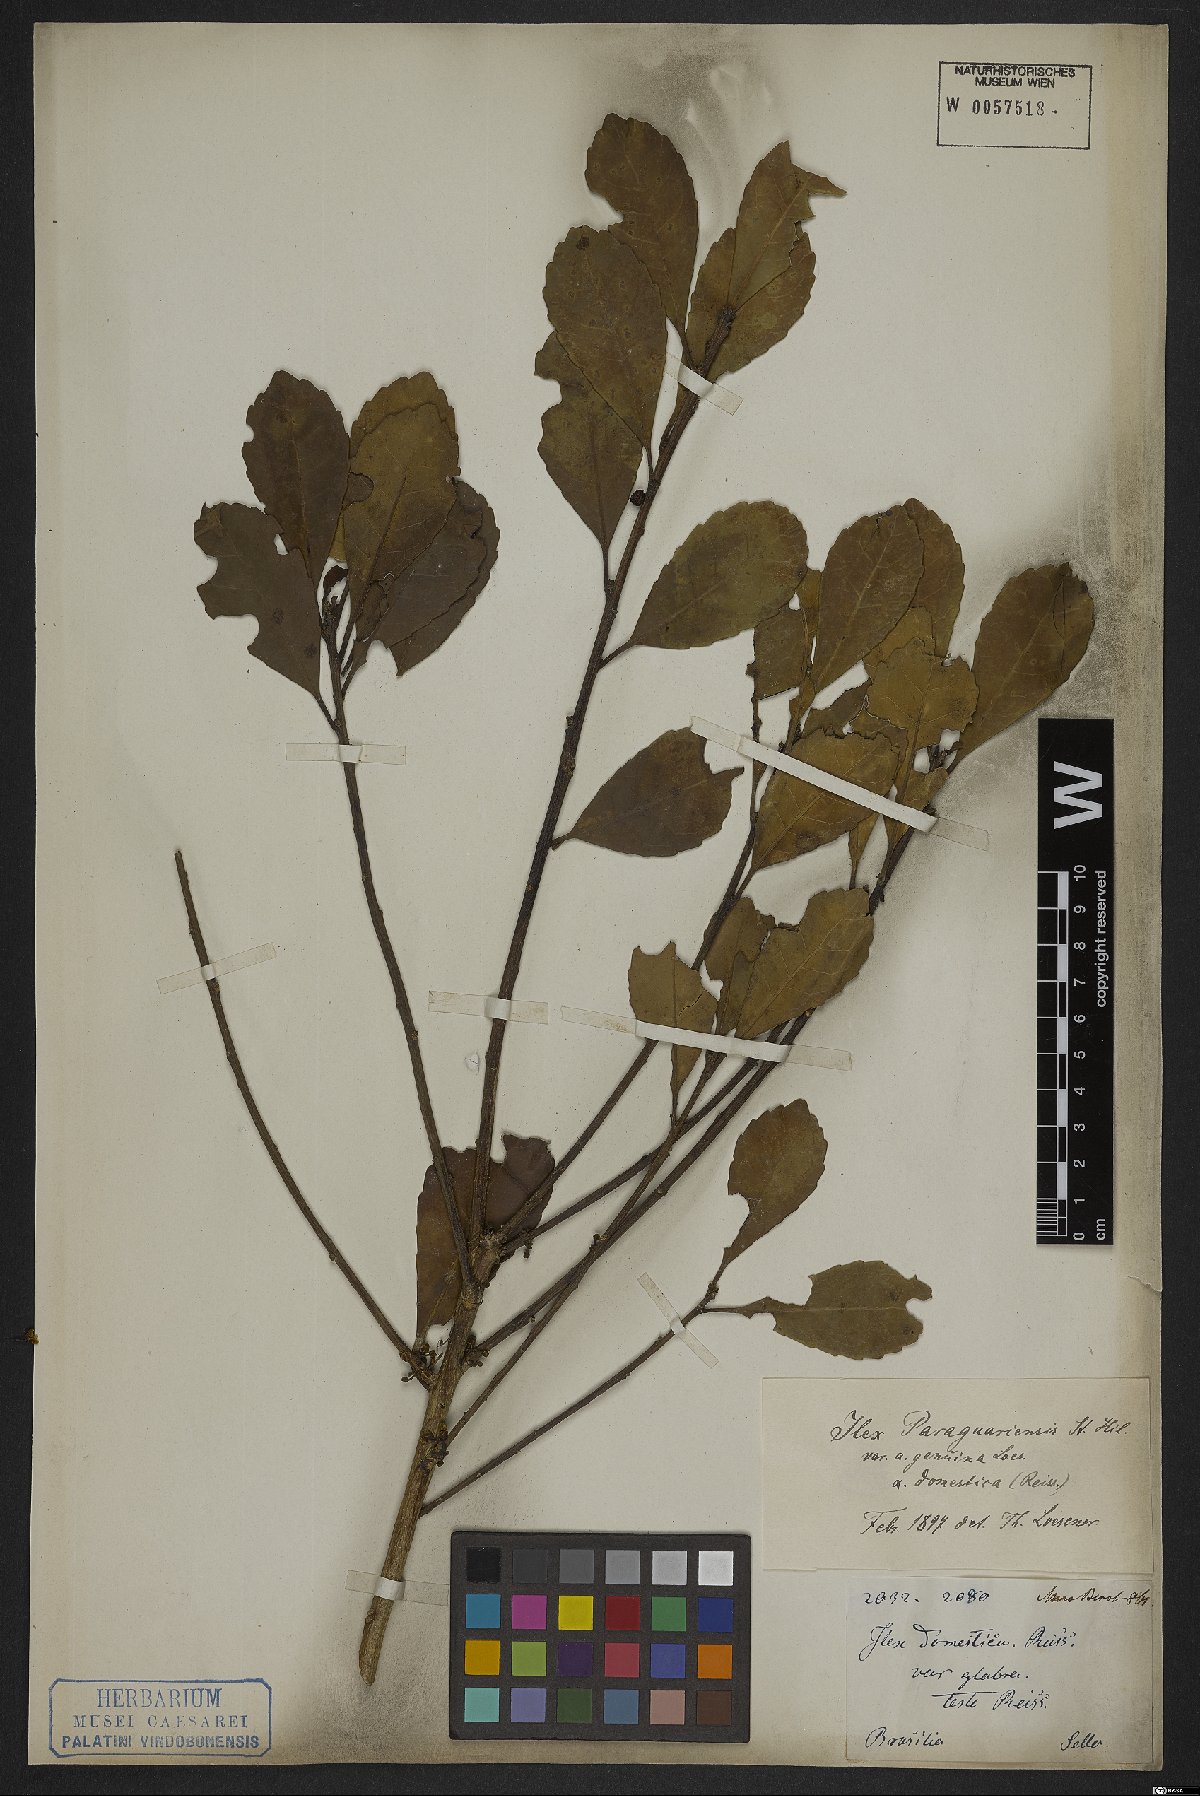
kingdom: Plantae
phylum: Tracheophyta
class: Magnoliopsida
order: Aquifoliales
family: Aquifoliaceae
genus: Ilex
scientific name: Ilex paraguariensis
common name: Paraguay tea
